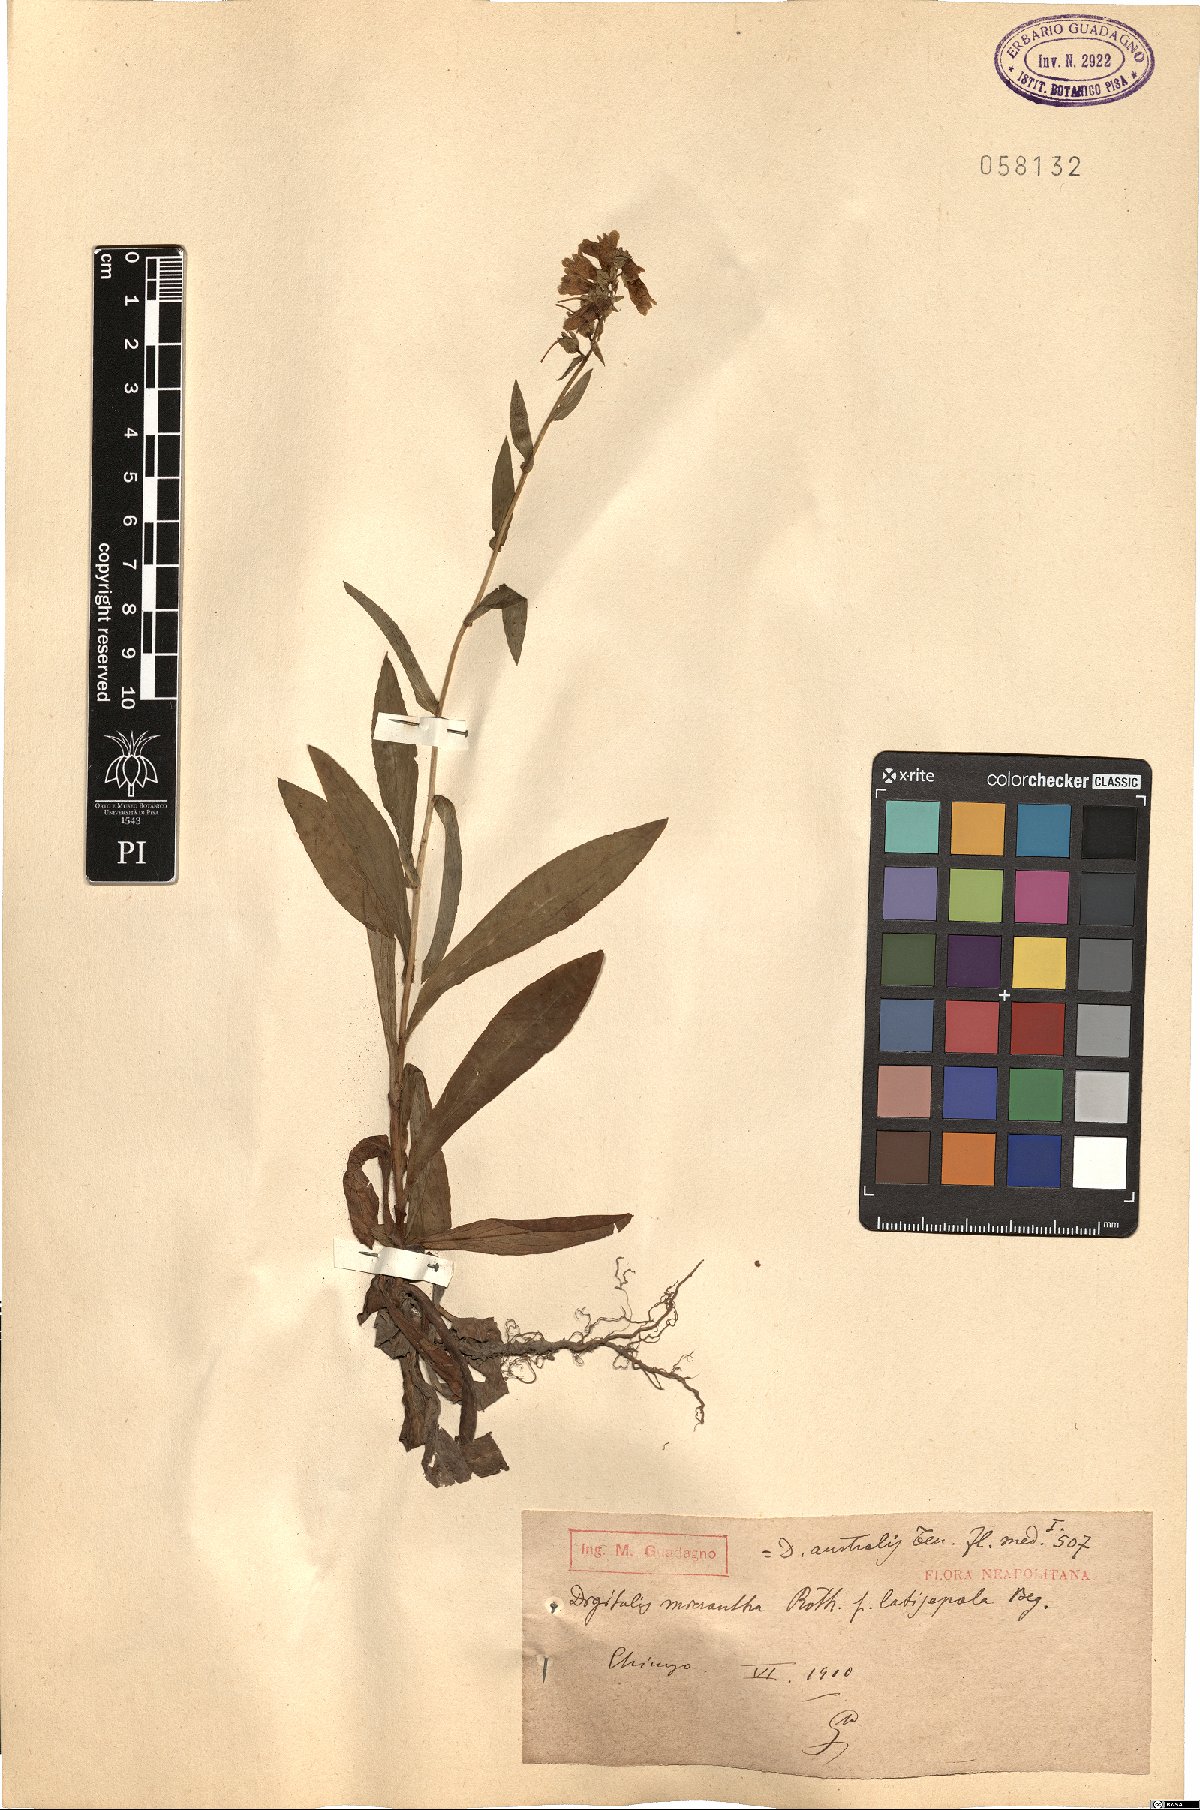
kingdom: Plantae
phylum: Tracheophyta
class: Magnoliopsida
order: Lamiales
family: Plantaginaceae
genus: Digitalis
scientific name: Digitalis lutea
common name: Straw foxglove
